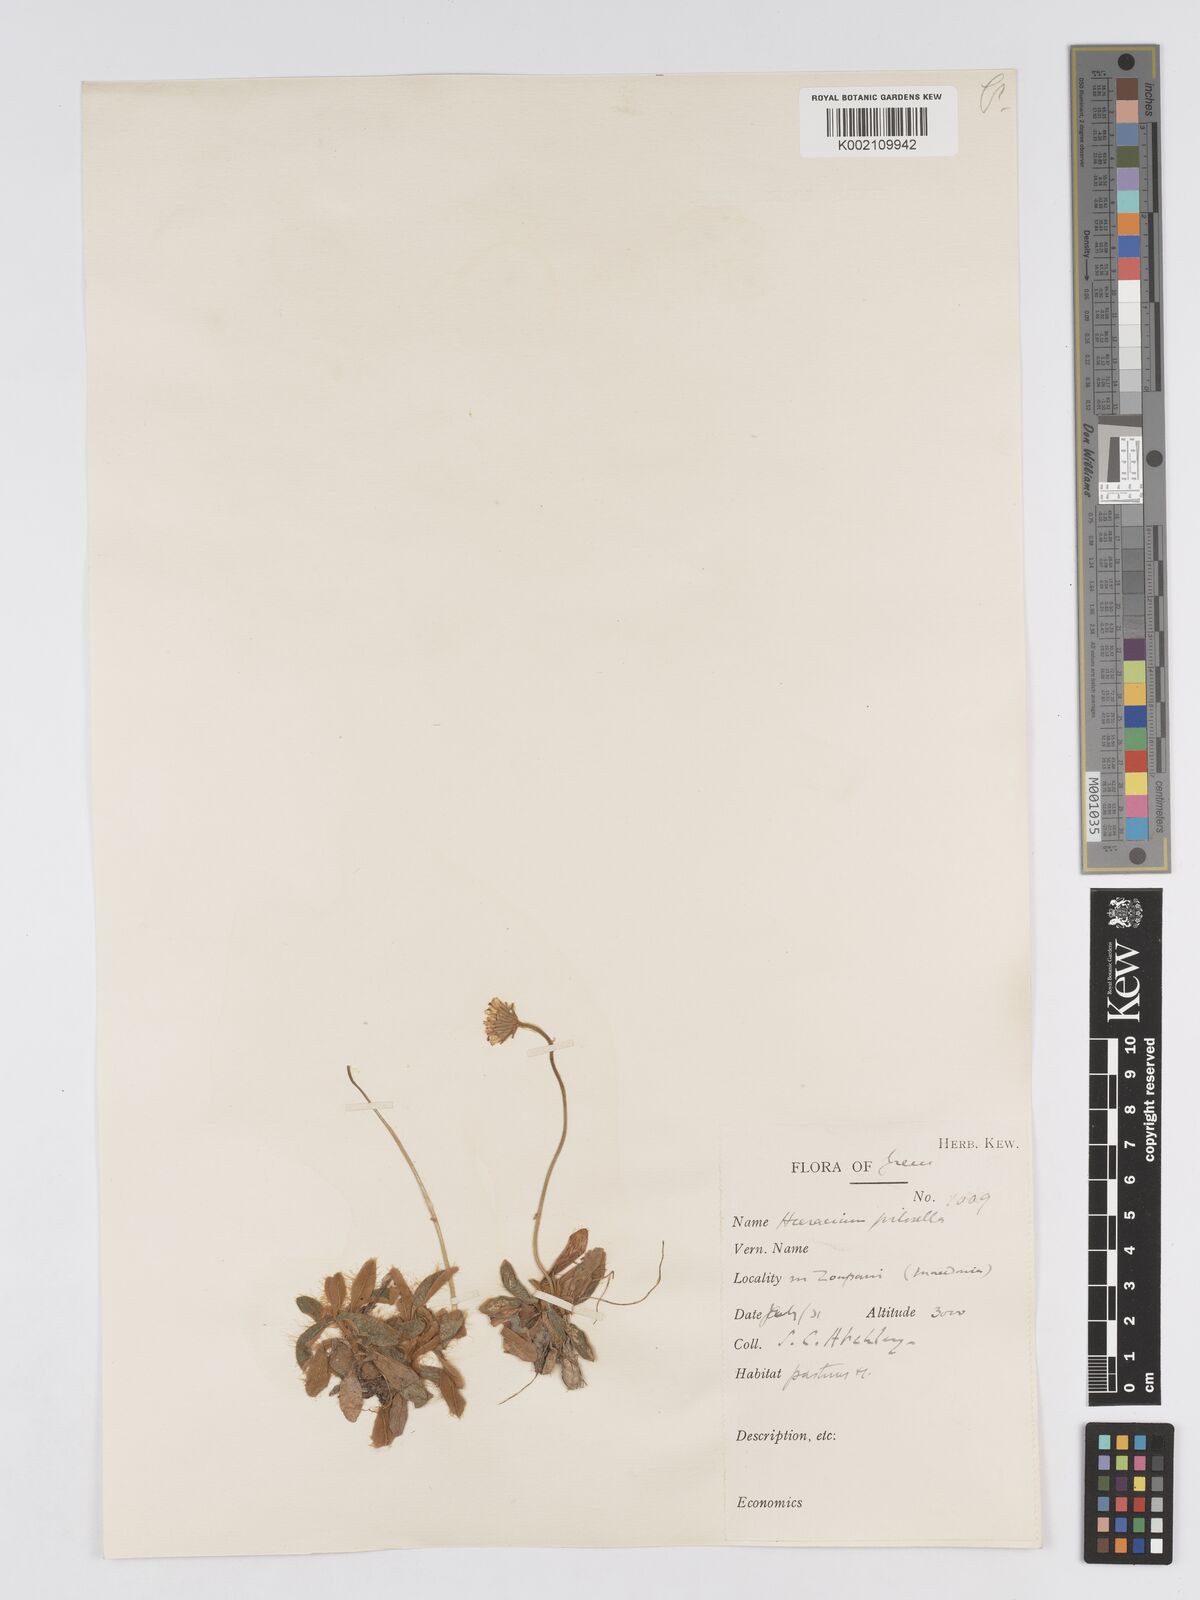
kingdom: Plantae
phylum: Tracheophyta
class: Magnoliopsida
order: Asterales
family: Asteraceae
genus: Pilosella
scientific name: Pilosella hoppeana
